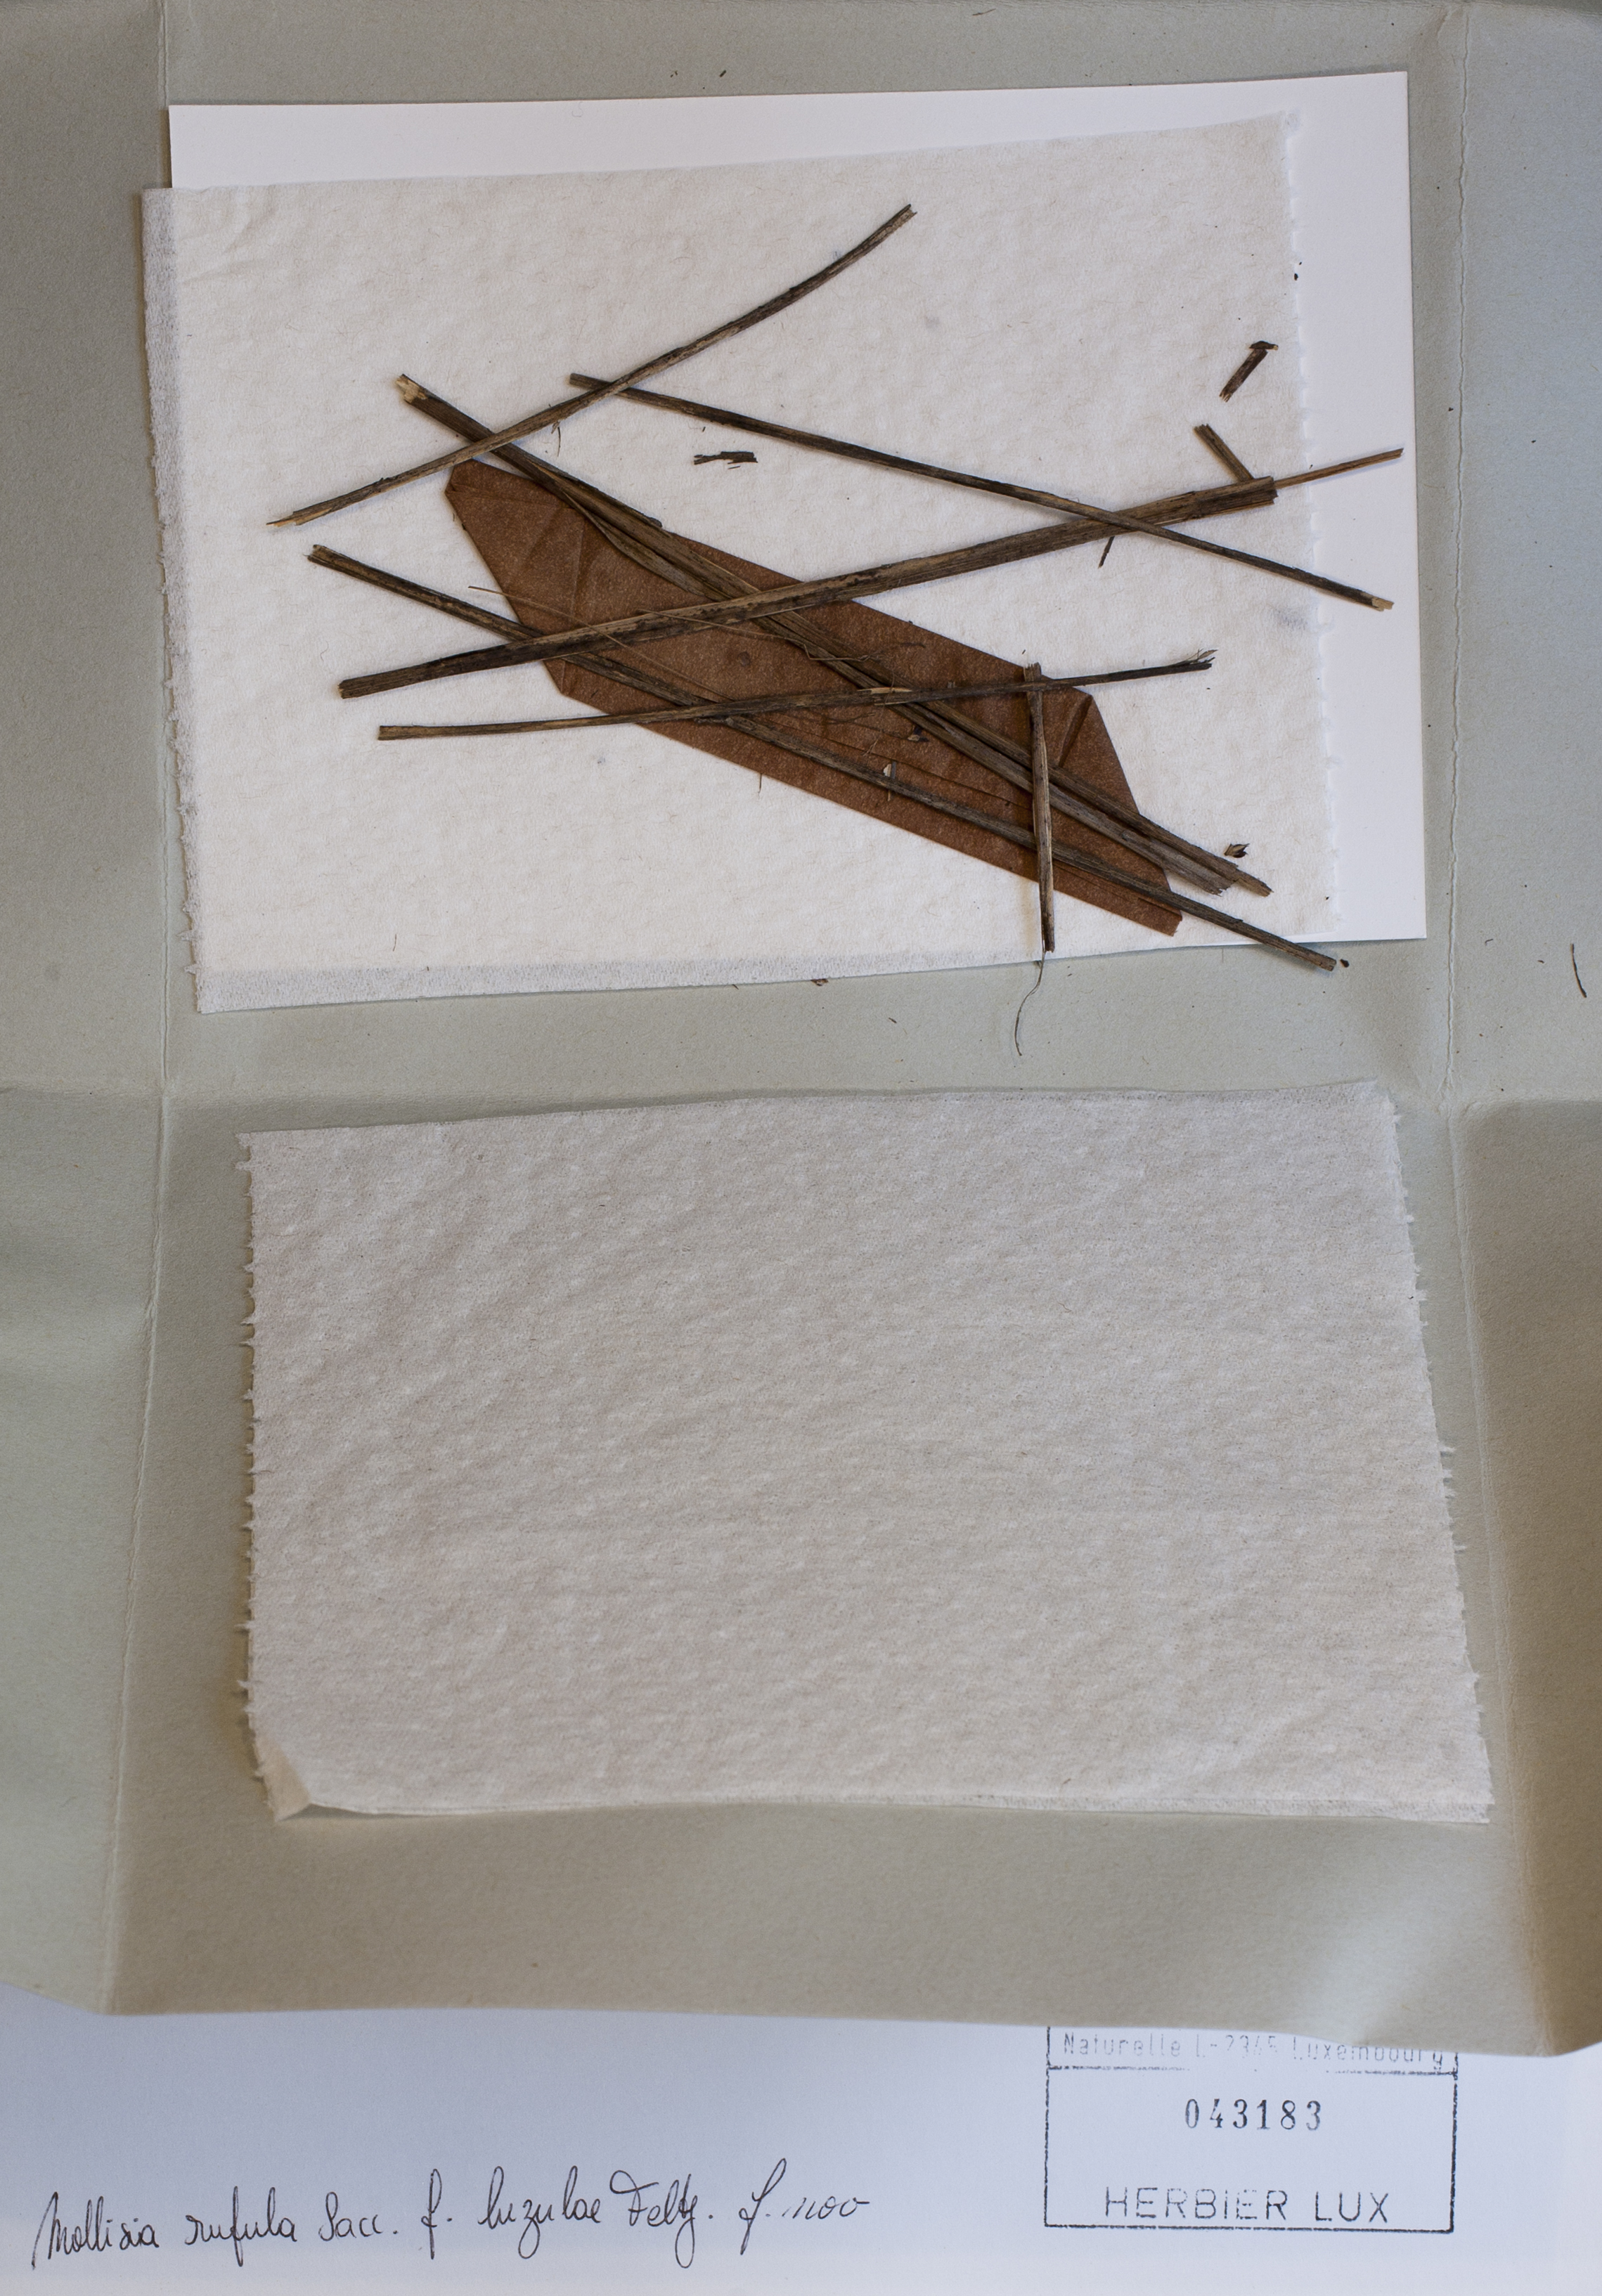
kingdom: Fungi
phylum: Ascomycota
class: Leotiomycetes
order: Helotiales
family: Hyaloscyphaceae
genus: Urceolella
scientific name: Urceolella rufula
